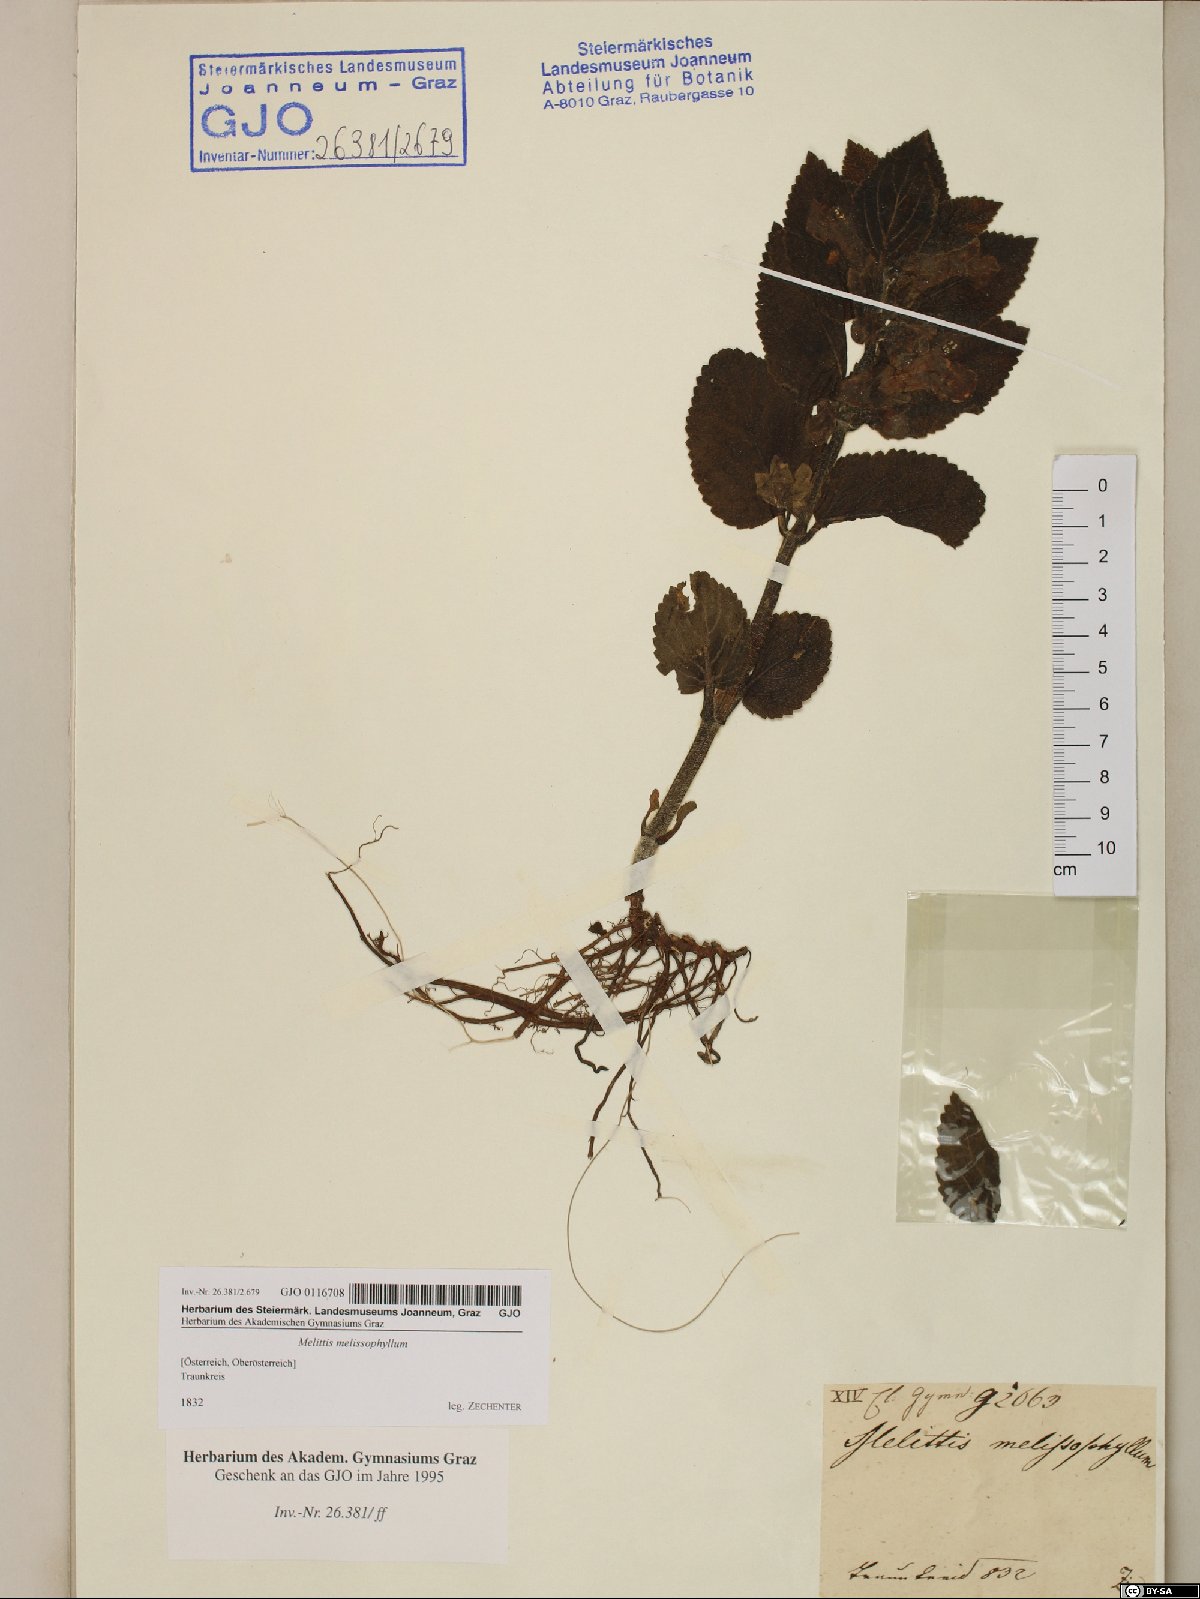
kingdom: Plantae
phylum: Tracheophyta
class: Magnoliopsida
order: Lamiales
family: Lamiaceae
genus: Melittis
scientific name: Melittis melissophyllum
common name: Bastard balm
